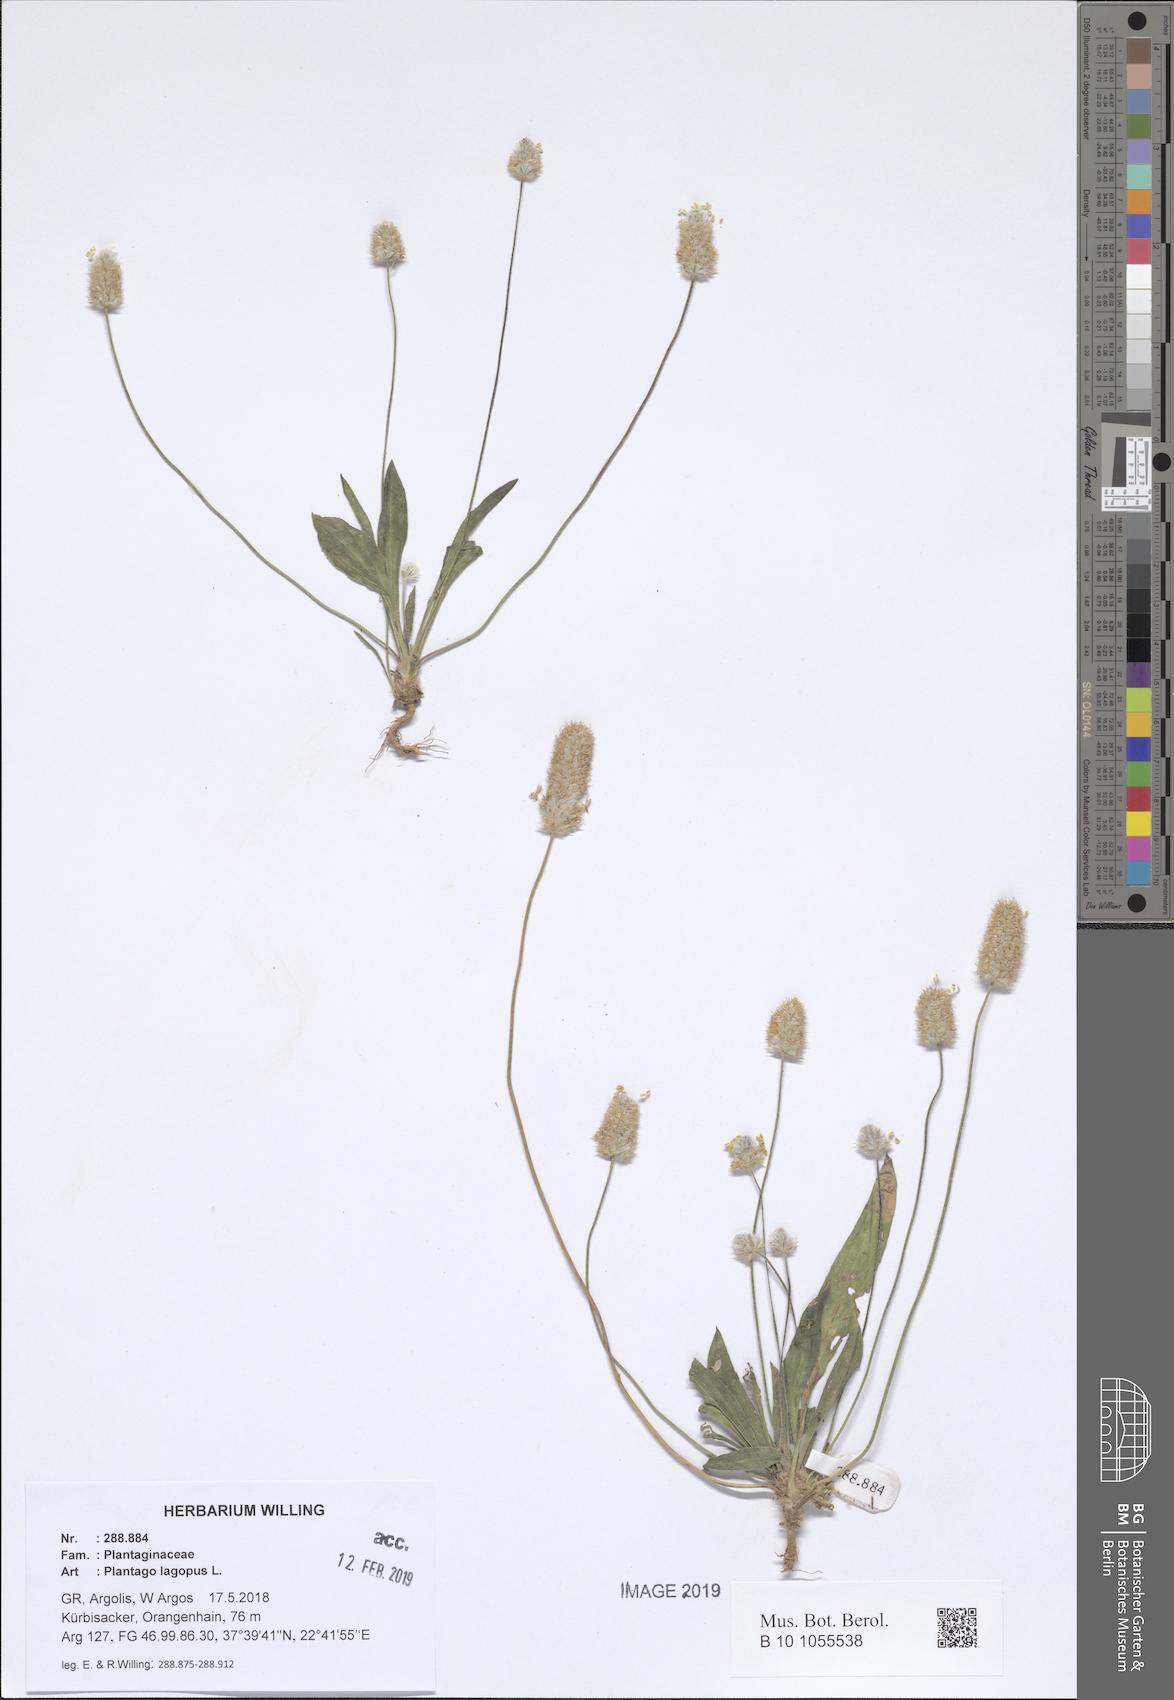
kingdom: Plantae
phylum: Tracheophyta
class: Magnoliopsida
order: Lamiales
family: Plantaginaceae
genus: Plantago
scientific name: Plantago lagopus
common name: Hare-foot plantain
